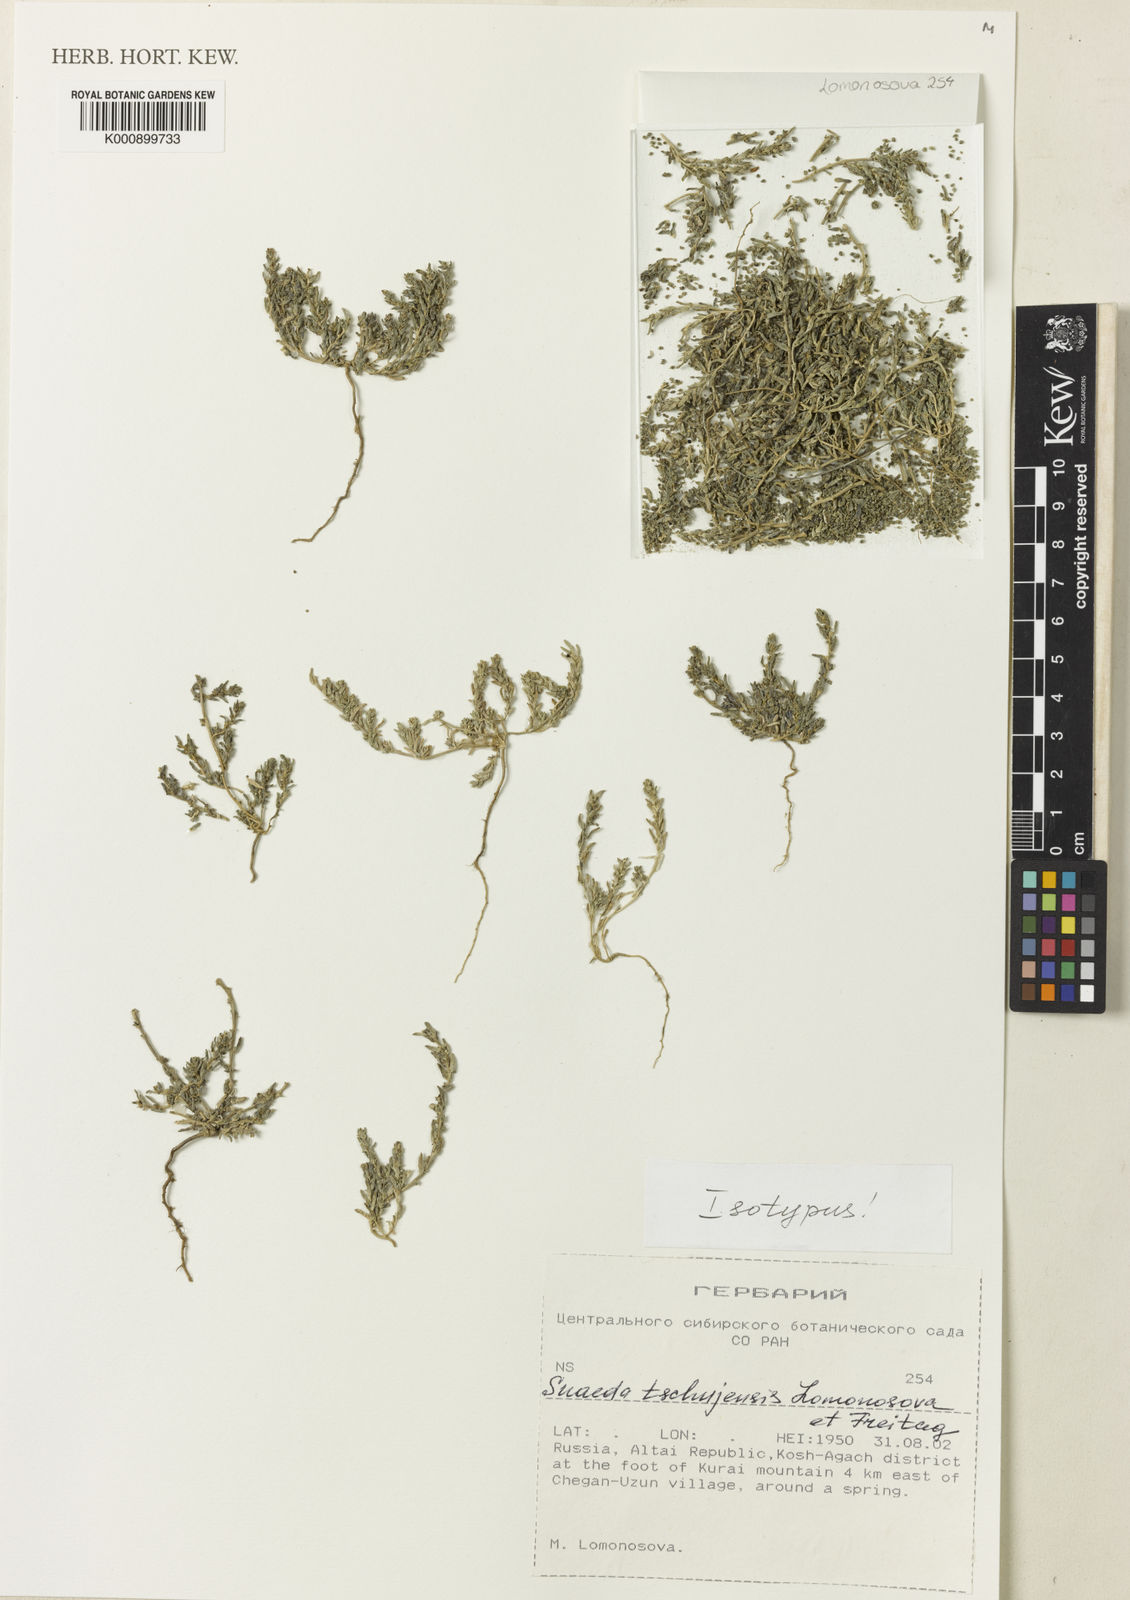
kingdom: Plantae
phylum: Tracheophyta
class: Magnoliopsida
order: Caryophyllales
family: Amaranthaceae
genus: Suaeda
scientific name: Suaeda tschujensis
